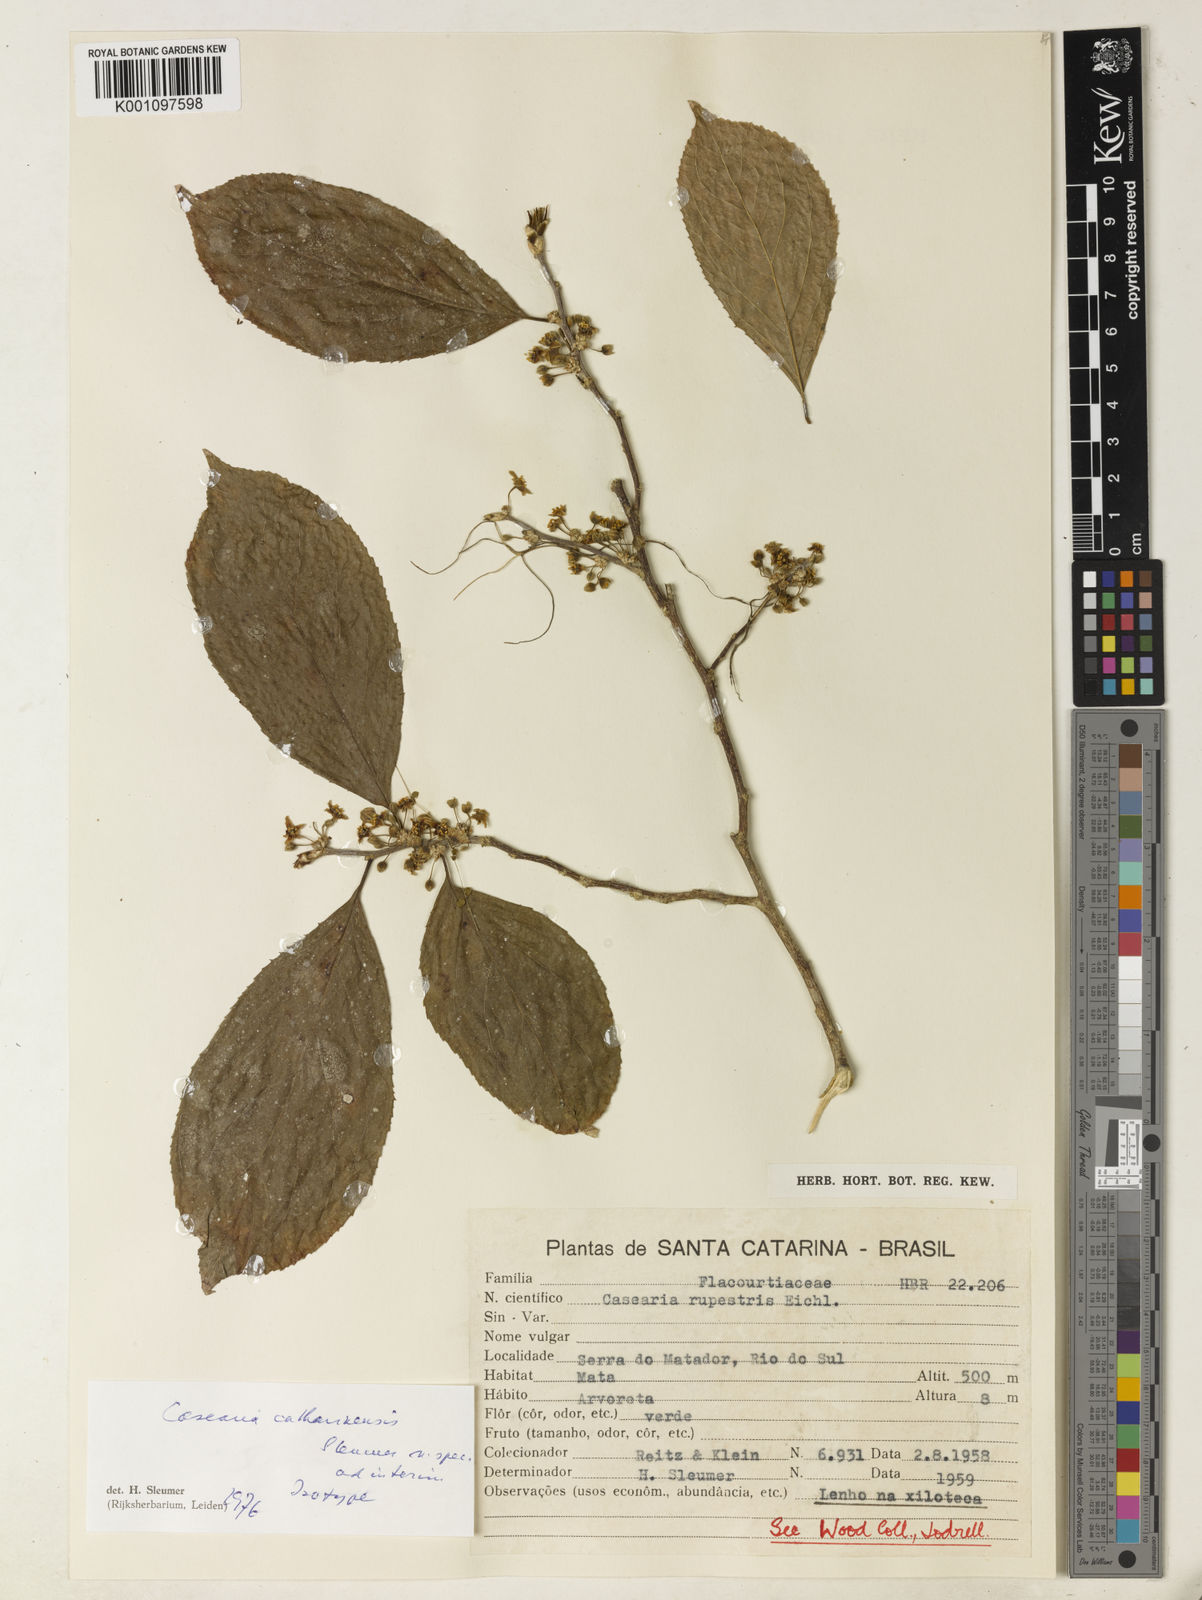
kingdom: Plantae
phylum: Tracheophyta
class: Magnoliopsida
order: Malpighiales
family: Salicaceae
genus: Casearia
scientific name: Casearia catharinensis
